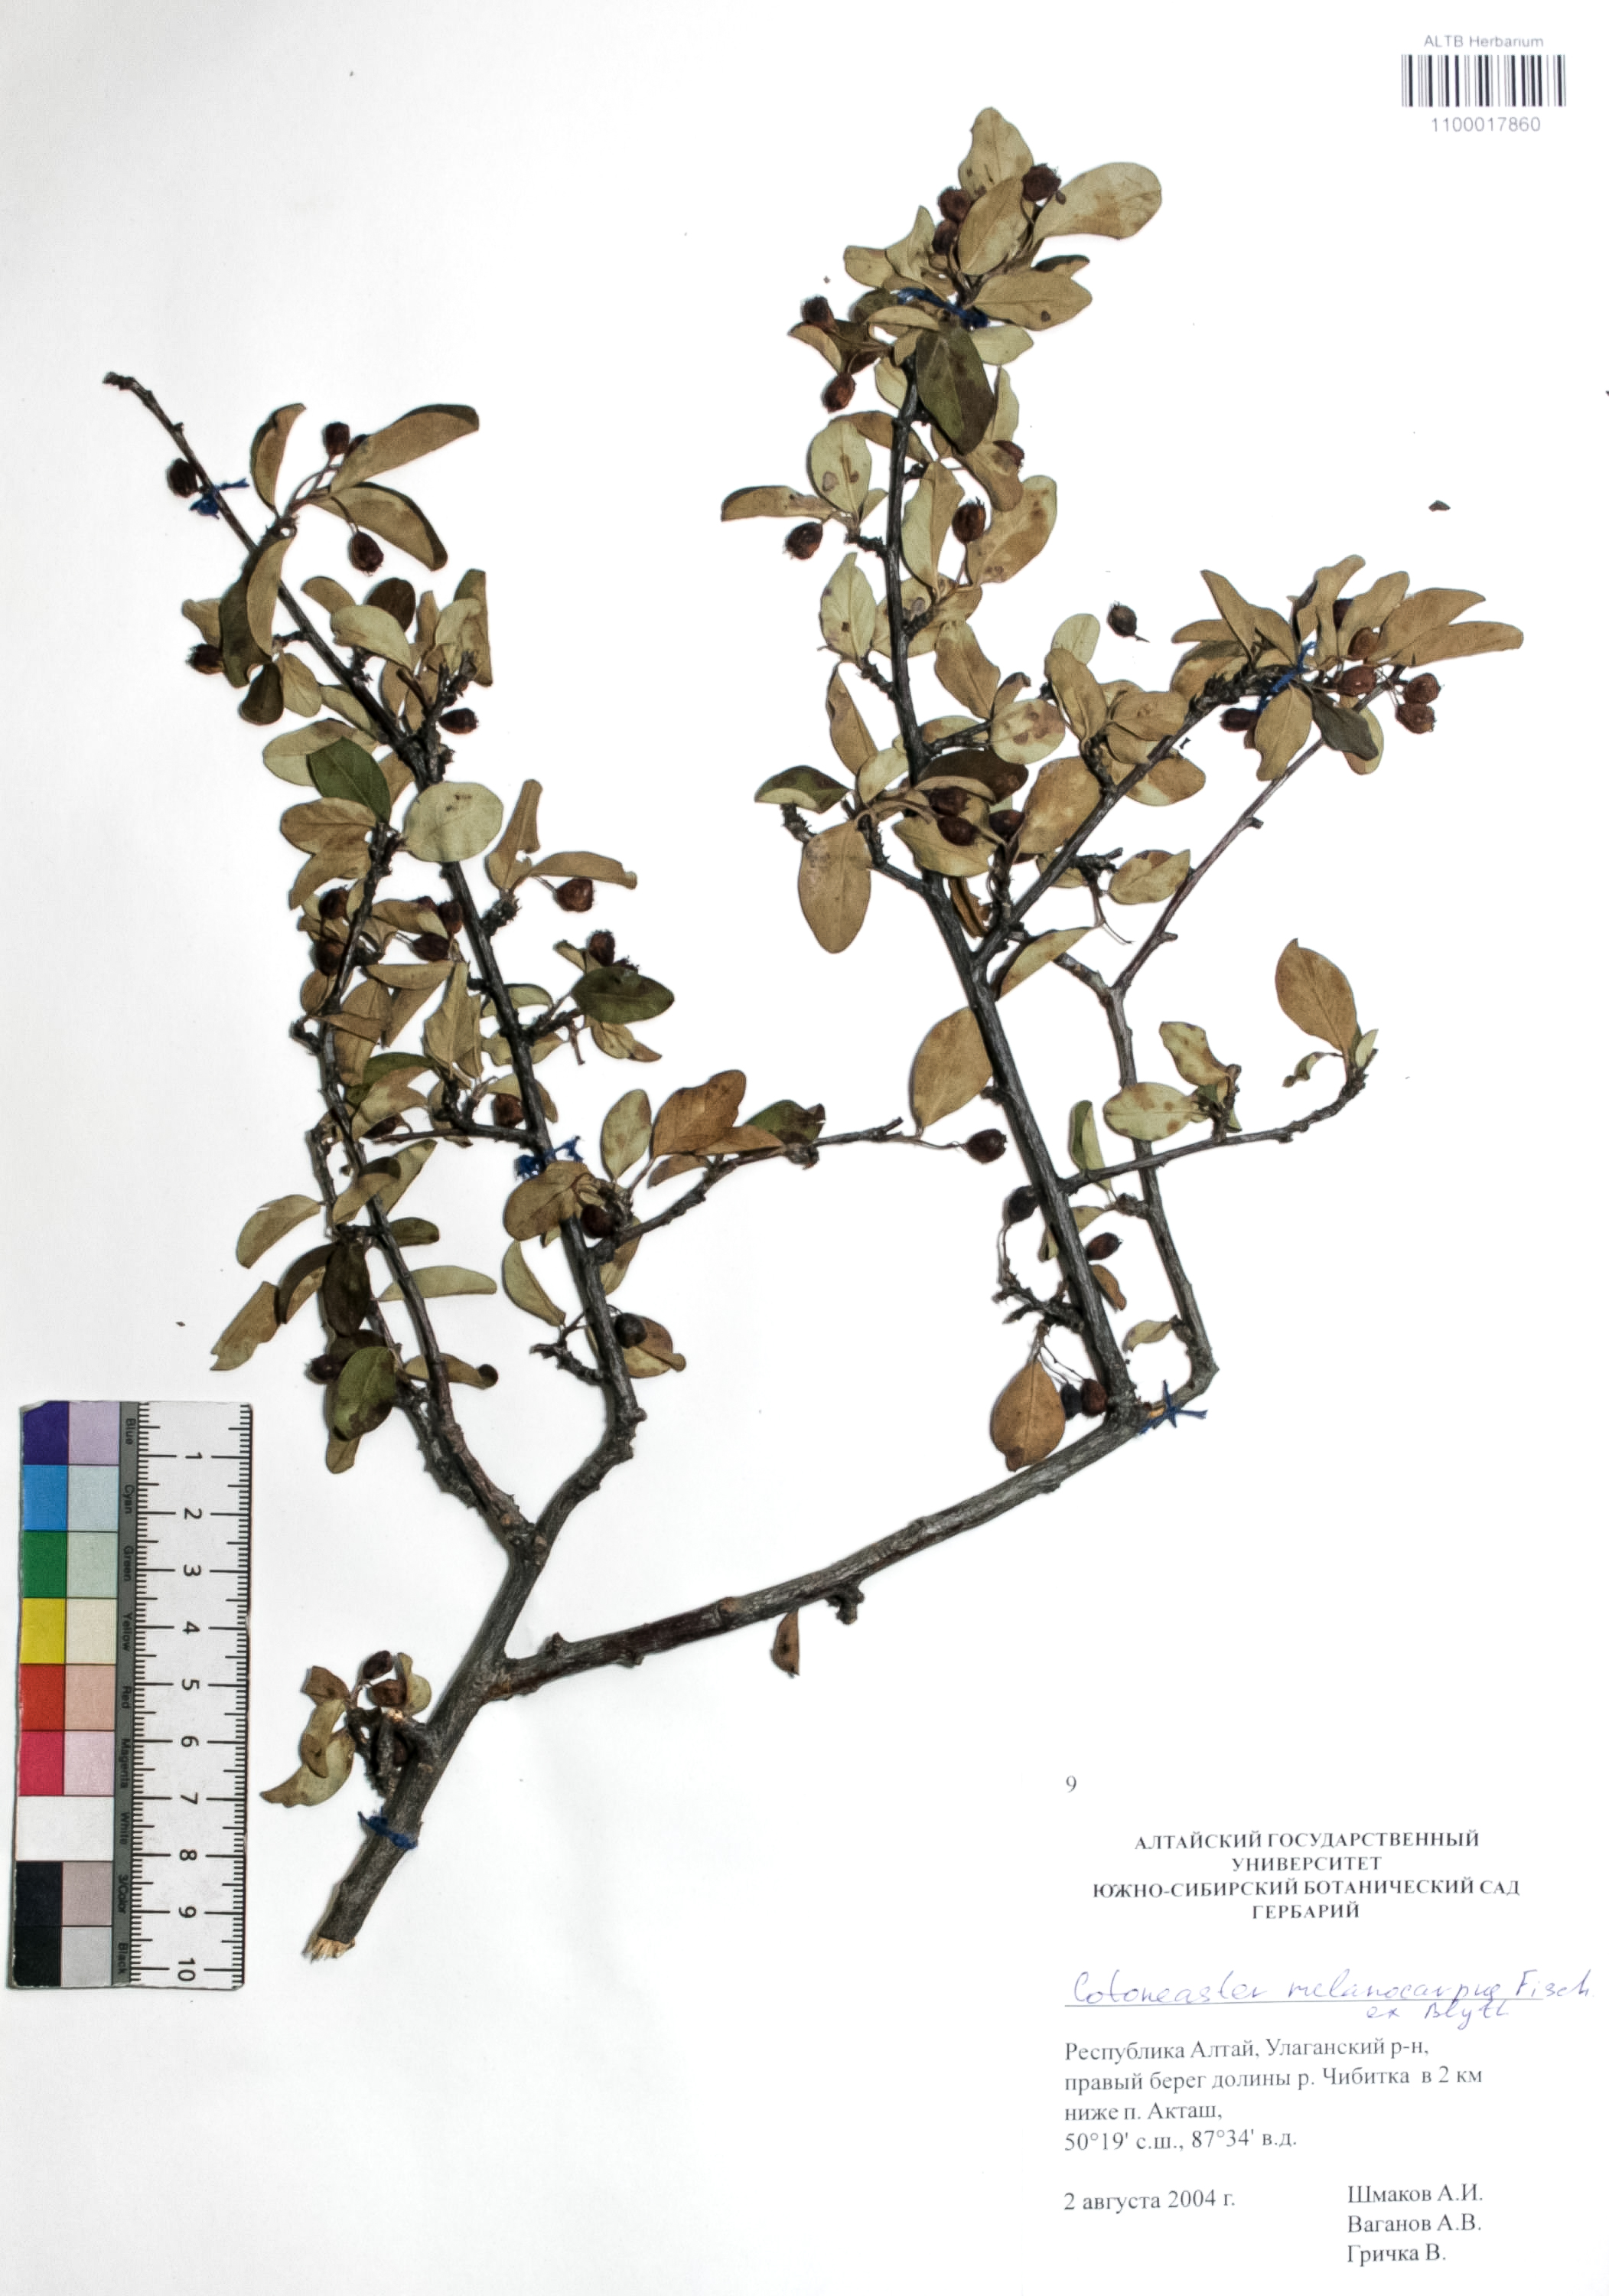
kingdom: Plantae
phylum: Tracheophyta
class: Magnoliopsida
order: Rosales
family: Rosaceae
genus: Chamaerhodos
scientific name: Chamaerhodos
